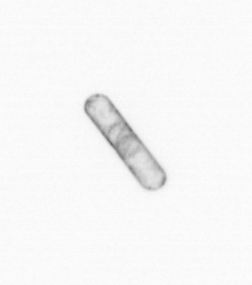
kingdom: Chromista
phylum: Ochrophyta
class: Bacillariophyceae
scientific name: Bacillariophyceae
